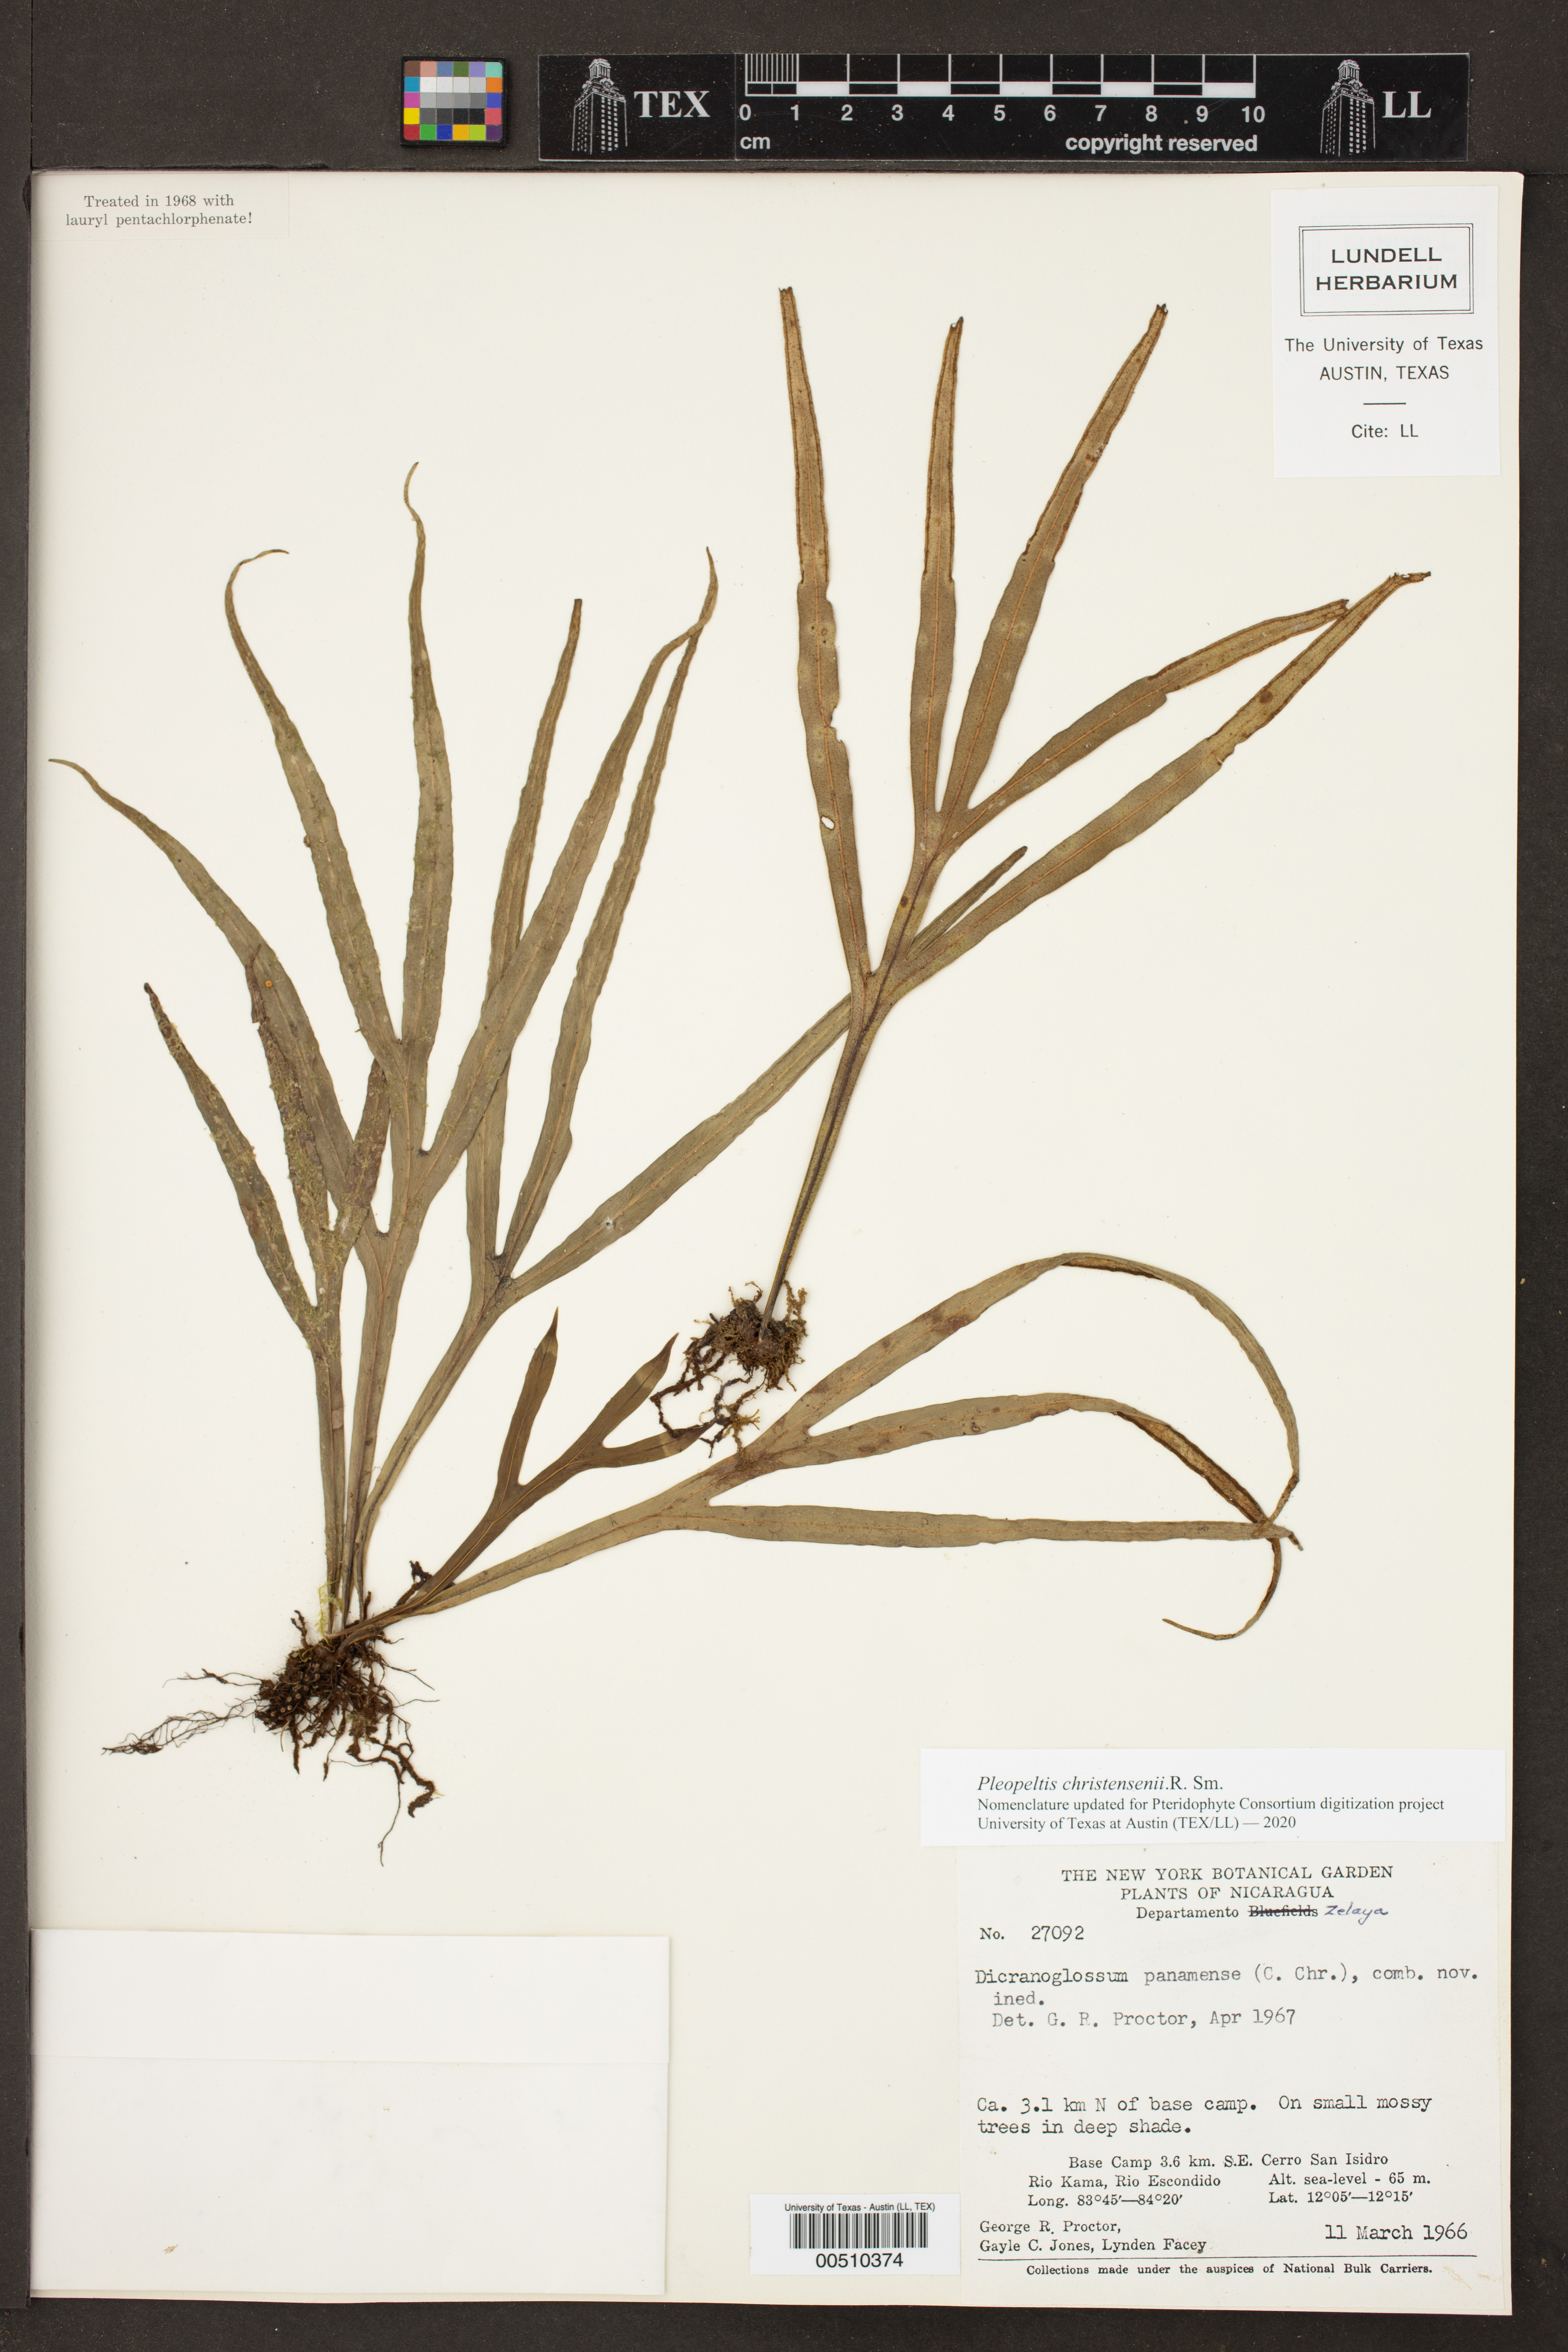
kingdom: Plantae
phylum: Tracheophyta
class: Polypodiopsida
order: Polypodiales
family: Polypodiaceae
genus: Pleopeltis
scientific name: Pleopeltis christensenii
